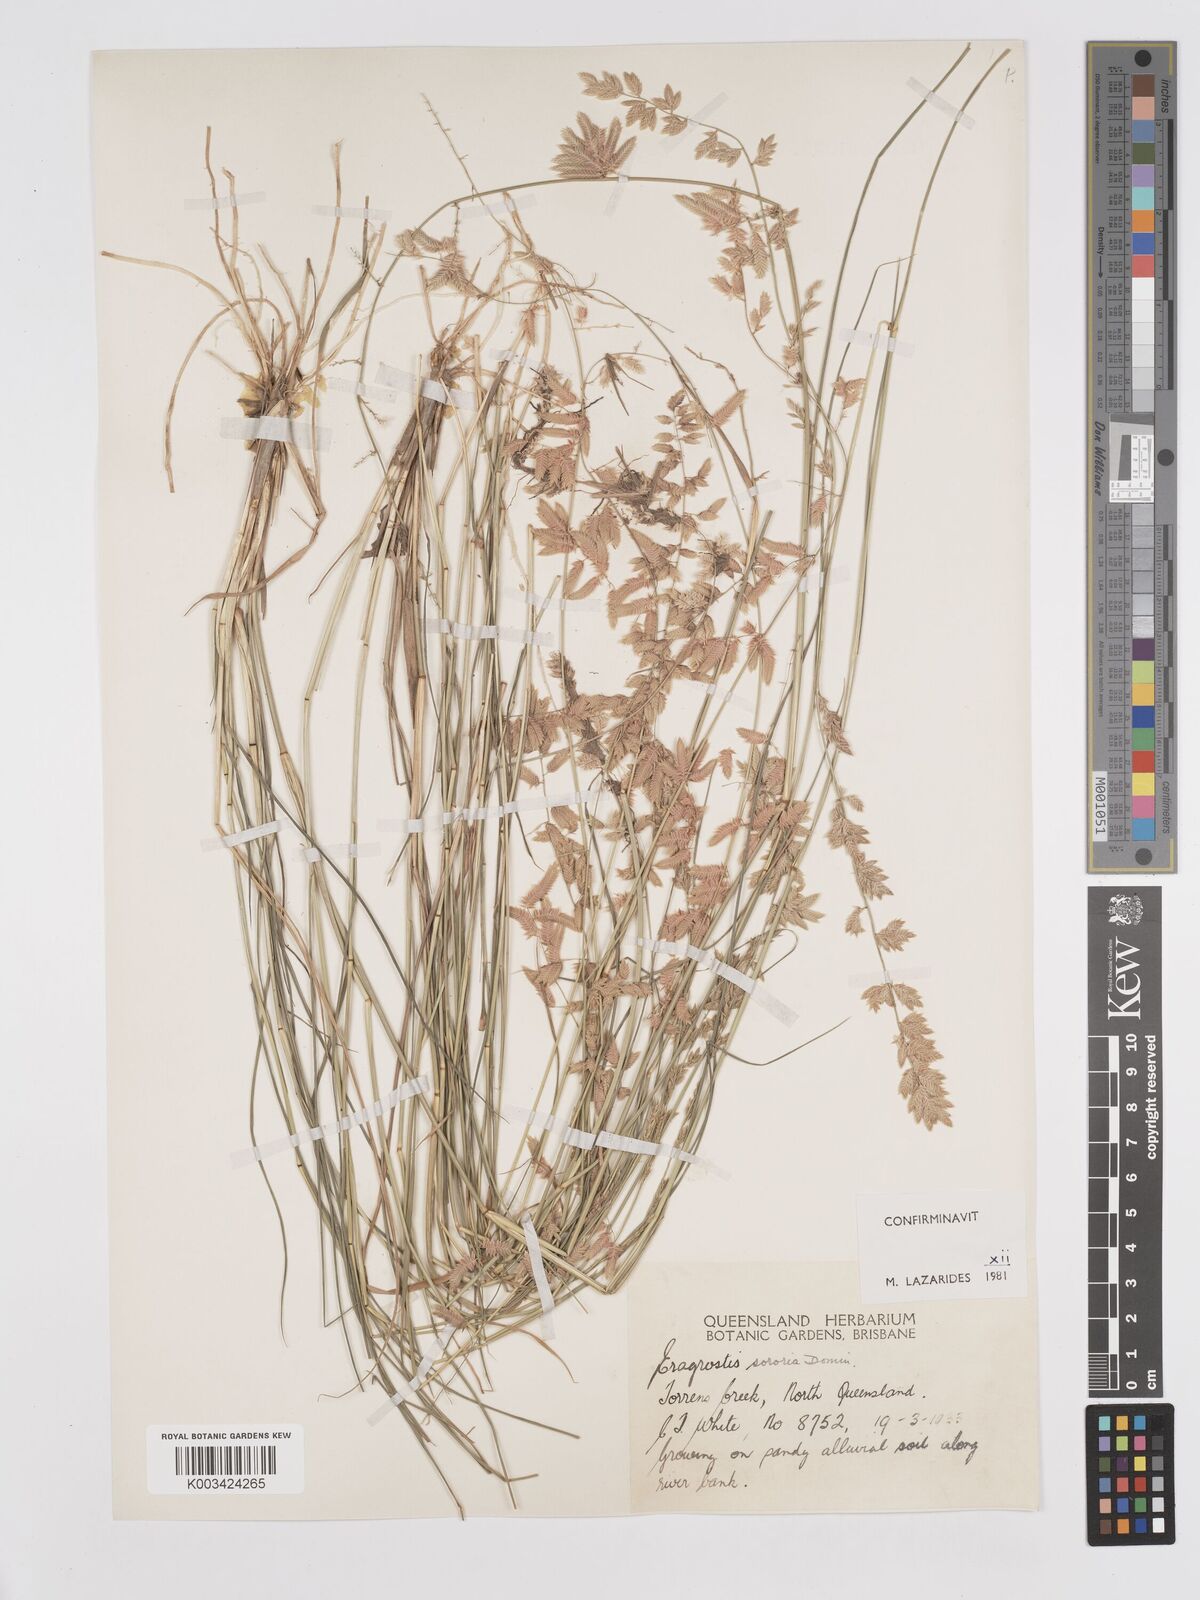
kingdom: Plantae
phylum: Tracheophyta
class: Liliopsida
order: Poales
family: Poaceae
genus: Eragrostis
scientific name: Eragrostis sororia
